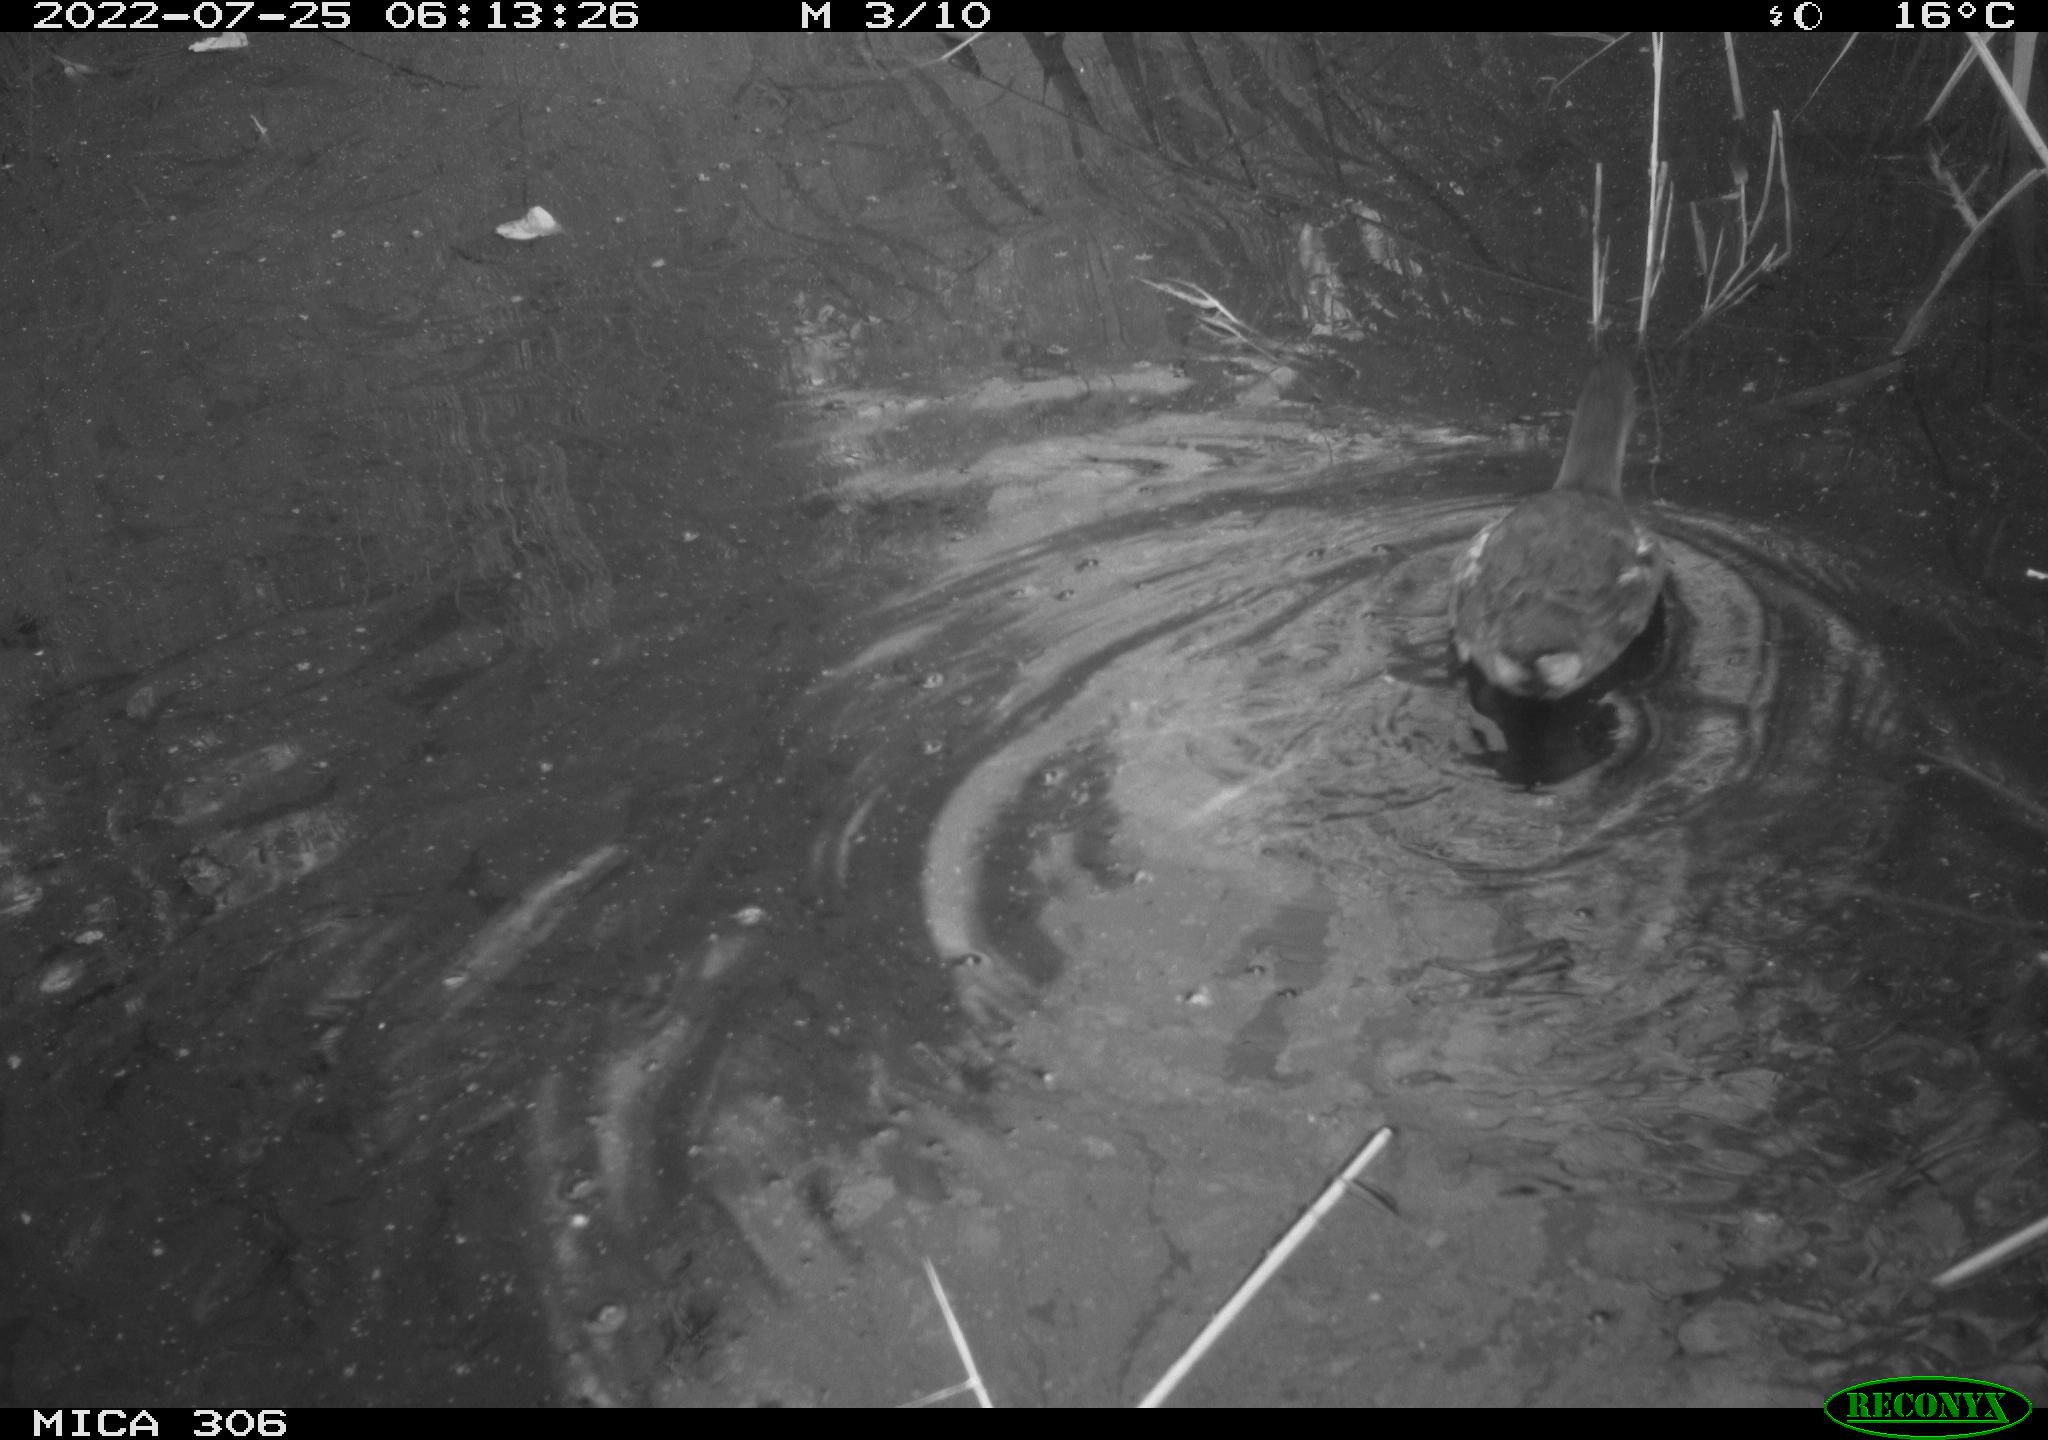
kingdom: Animalia
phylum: Chordata
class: Aves
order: Gruiformes
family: Rallidae
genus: Gallinula
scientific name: Gallinula chloropus
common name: Common moorhen
